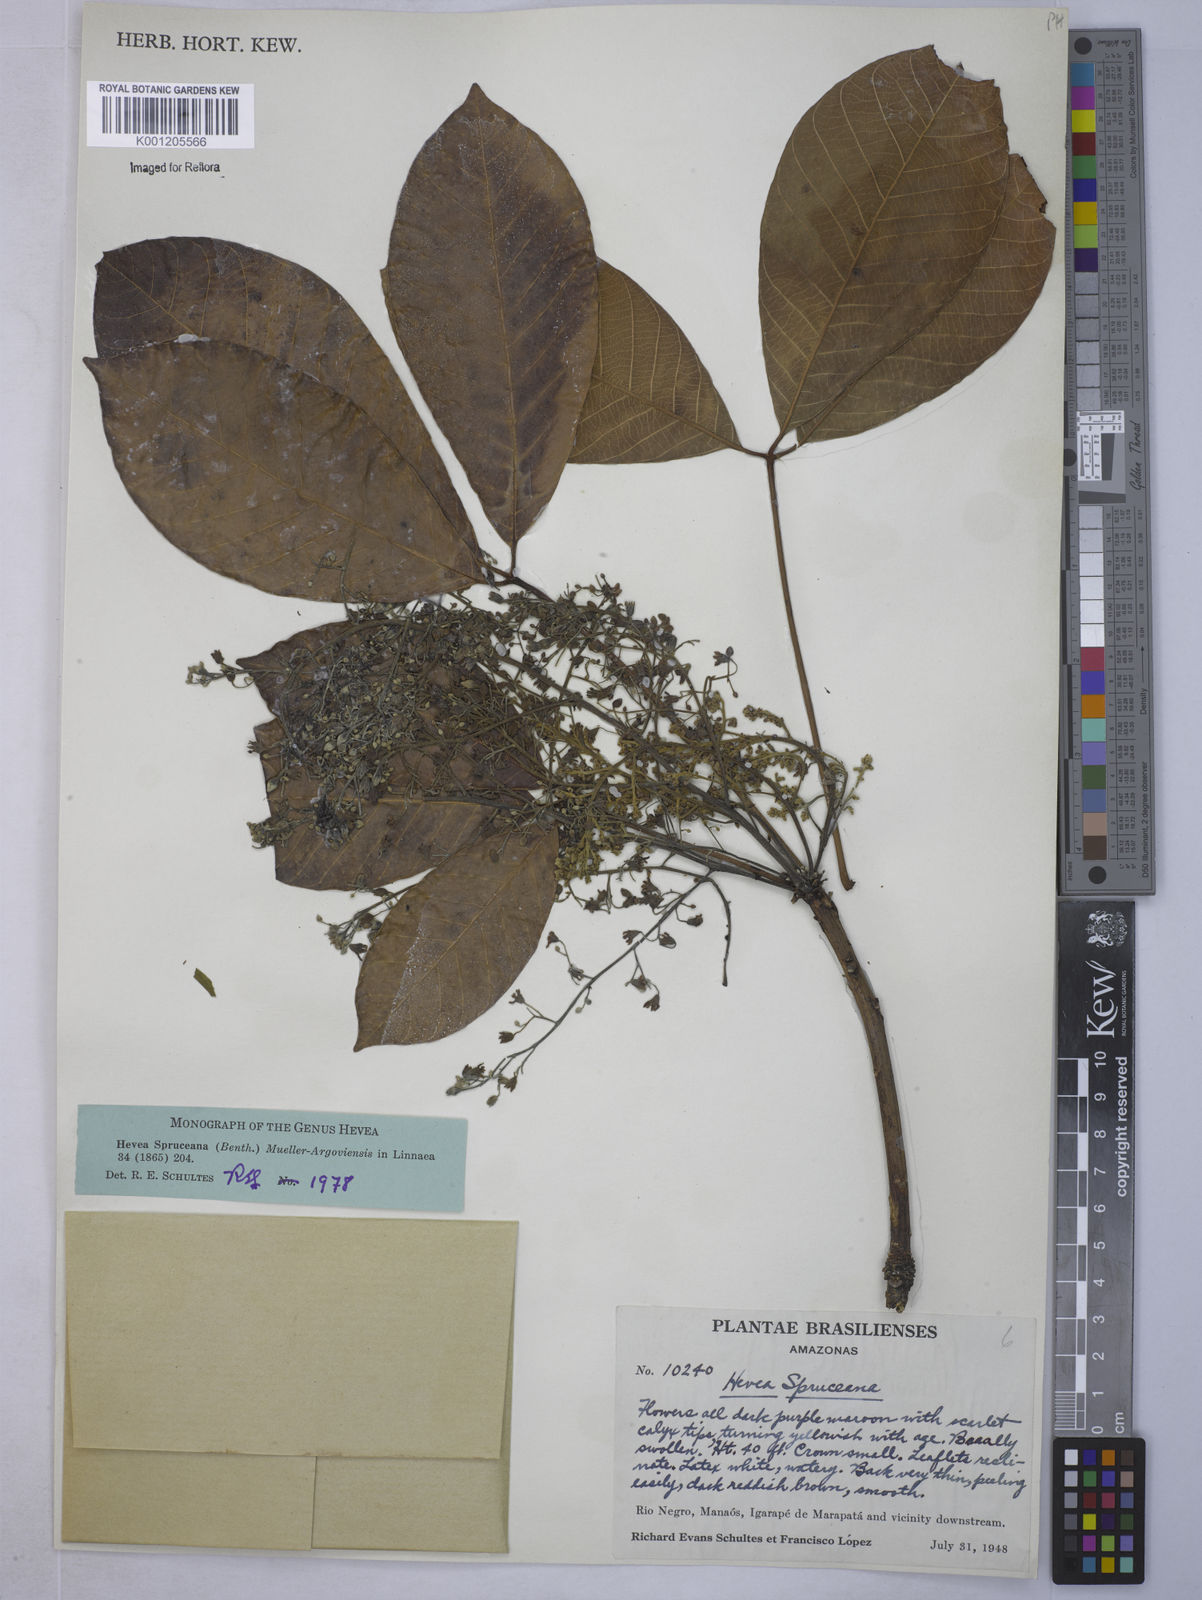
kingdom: Plantae
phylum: Tracheophyta
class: Magnoliopsida
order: Malpighiales
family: Euphorbiaceae
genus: Hevea
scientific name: Hevea
